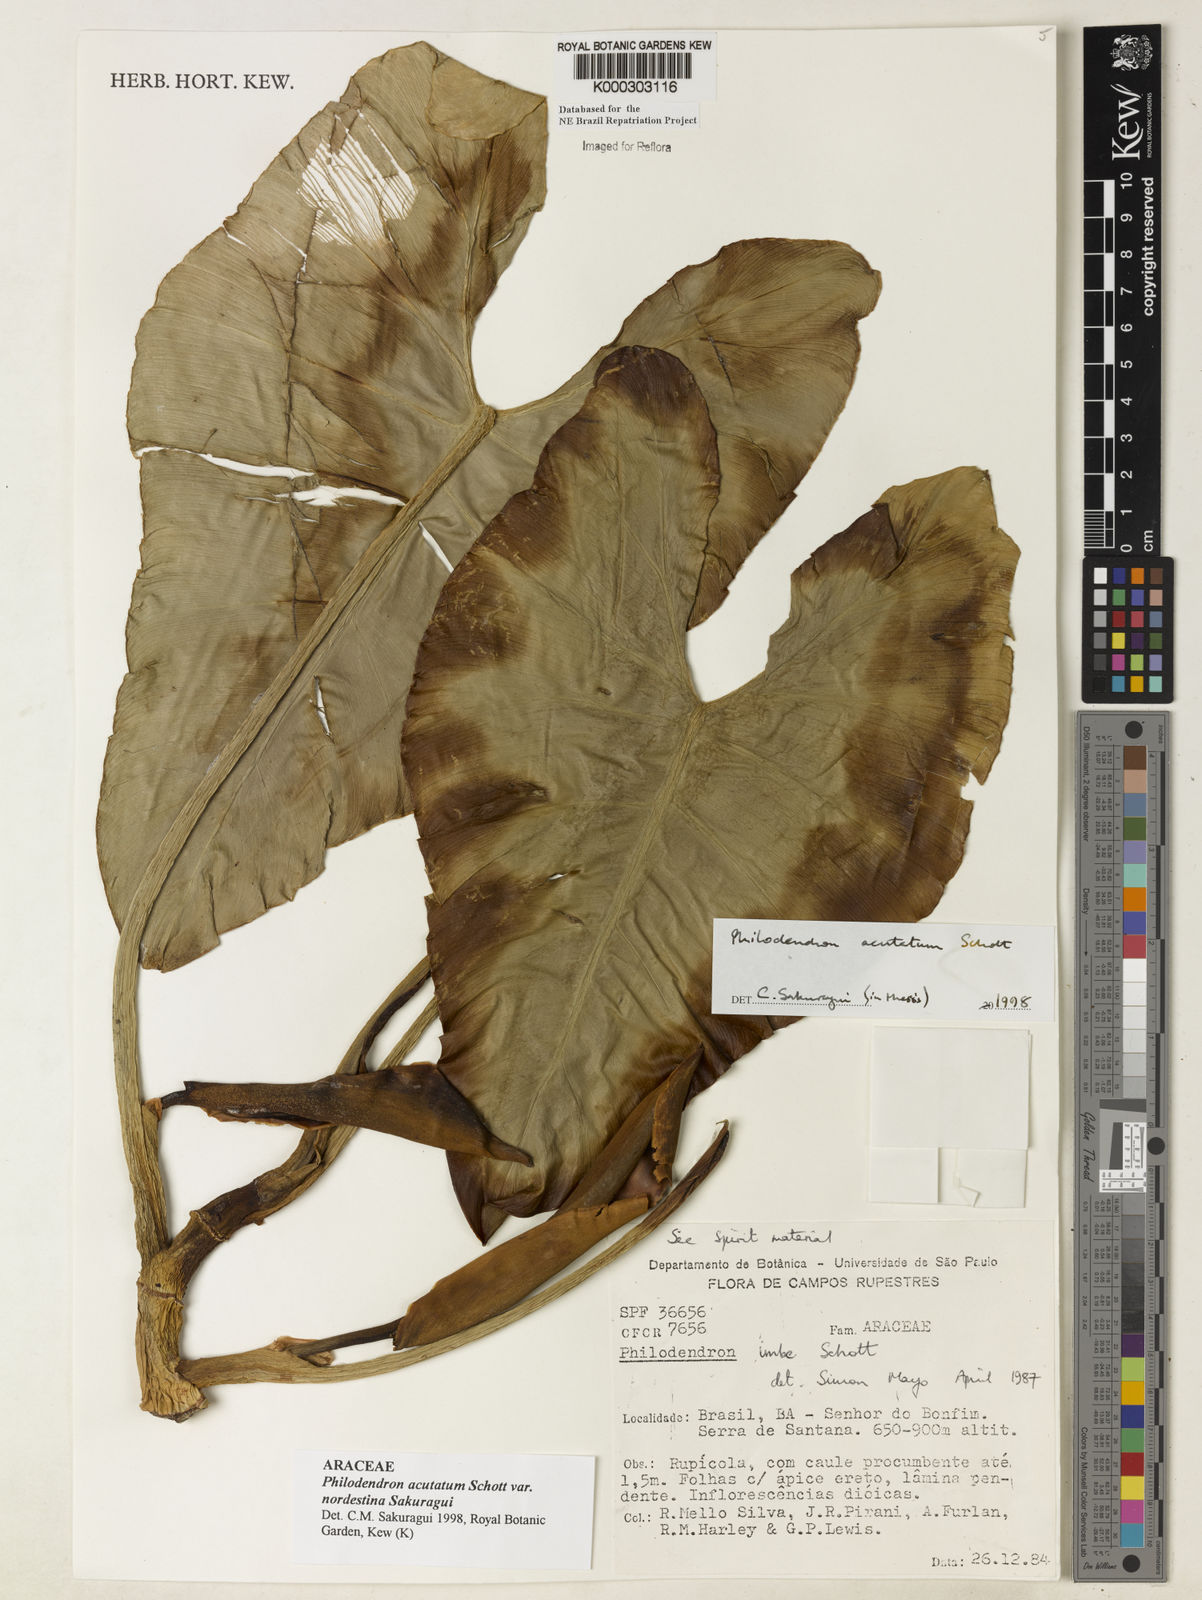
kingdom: Plantae
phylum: Tracheophyta
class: Liliopsida
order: Alismatales
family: Araceae
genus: Philodendron
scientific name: Philodendron quinquenervium
